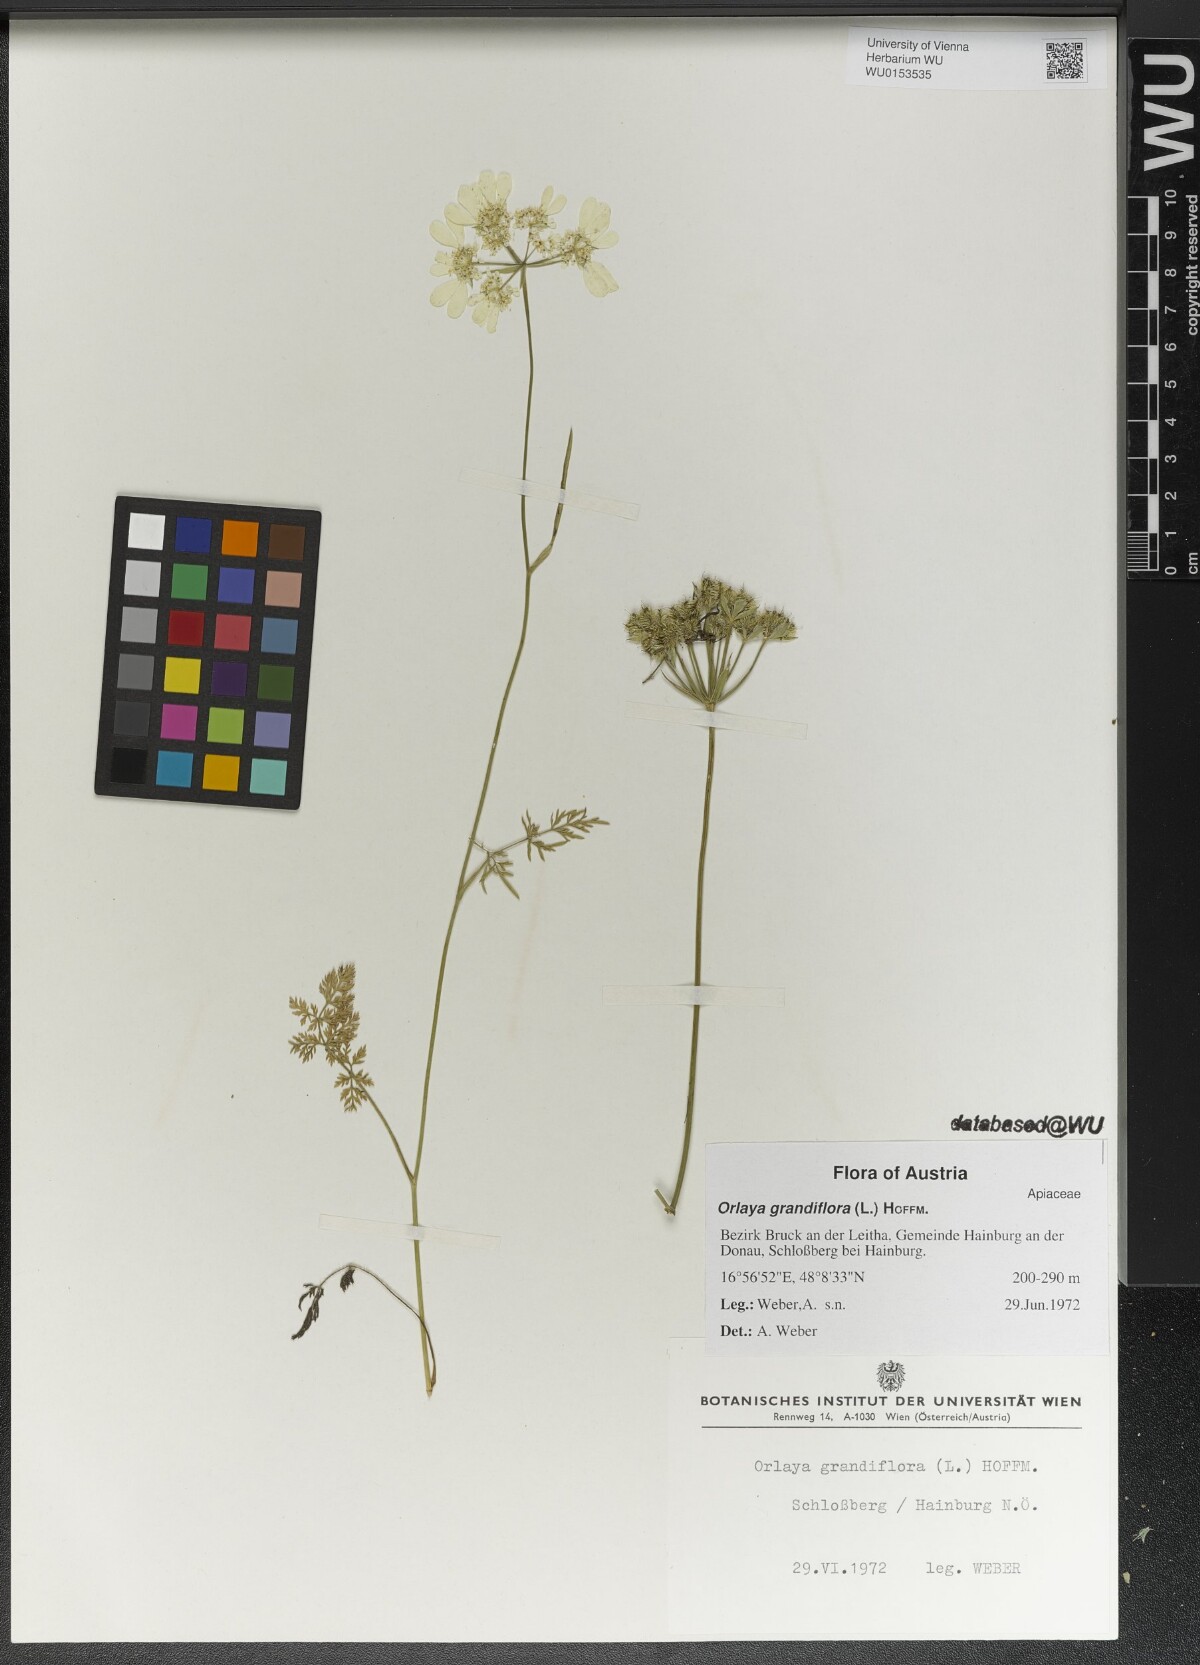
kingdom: Plantae
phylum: Tracheophyta
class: Magnoliopsida
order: Apiales
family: Apiaceae
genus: Orlaya
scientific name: Orlaya grandiflora
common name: White lace flower
